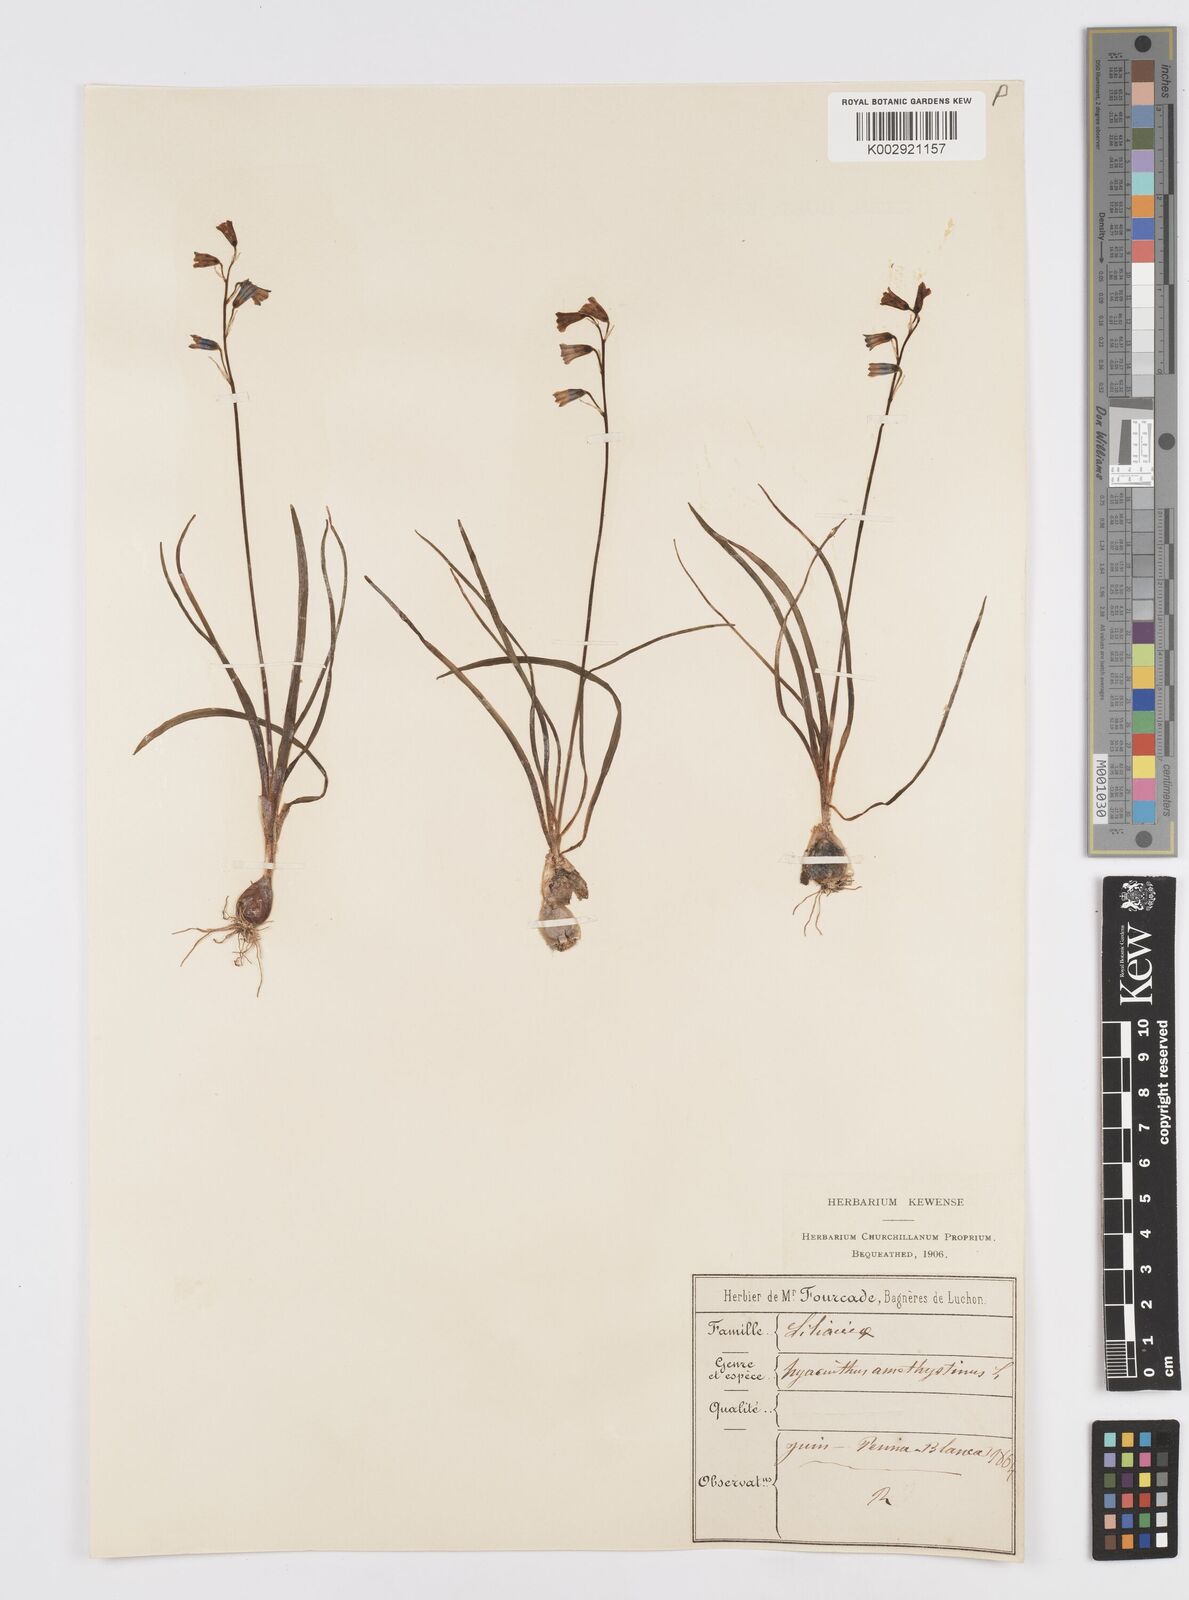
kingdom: Plantae
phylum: Tracheophyta
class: Liliopsida
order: Asparagales
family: Asparagaceae
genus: Brimeura
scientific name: Brimeura amethystina
